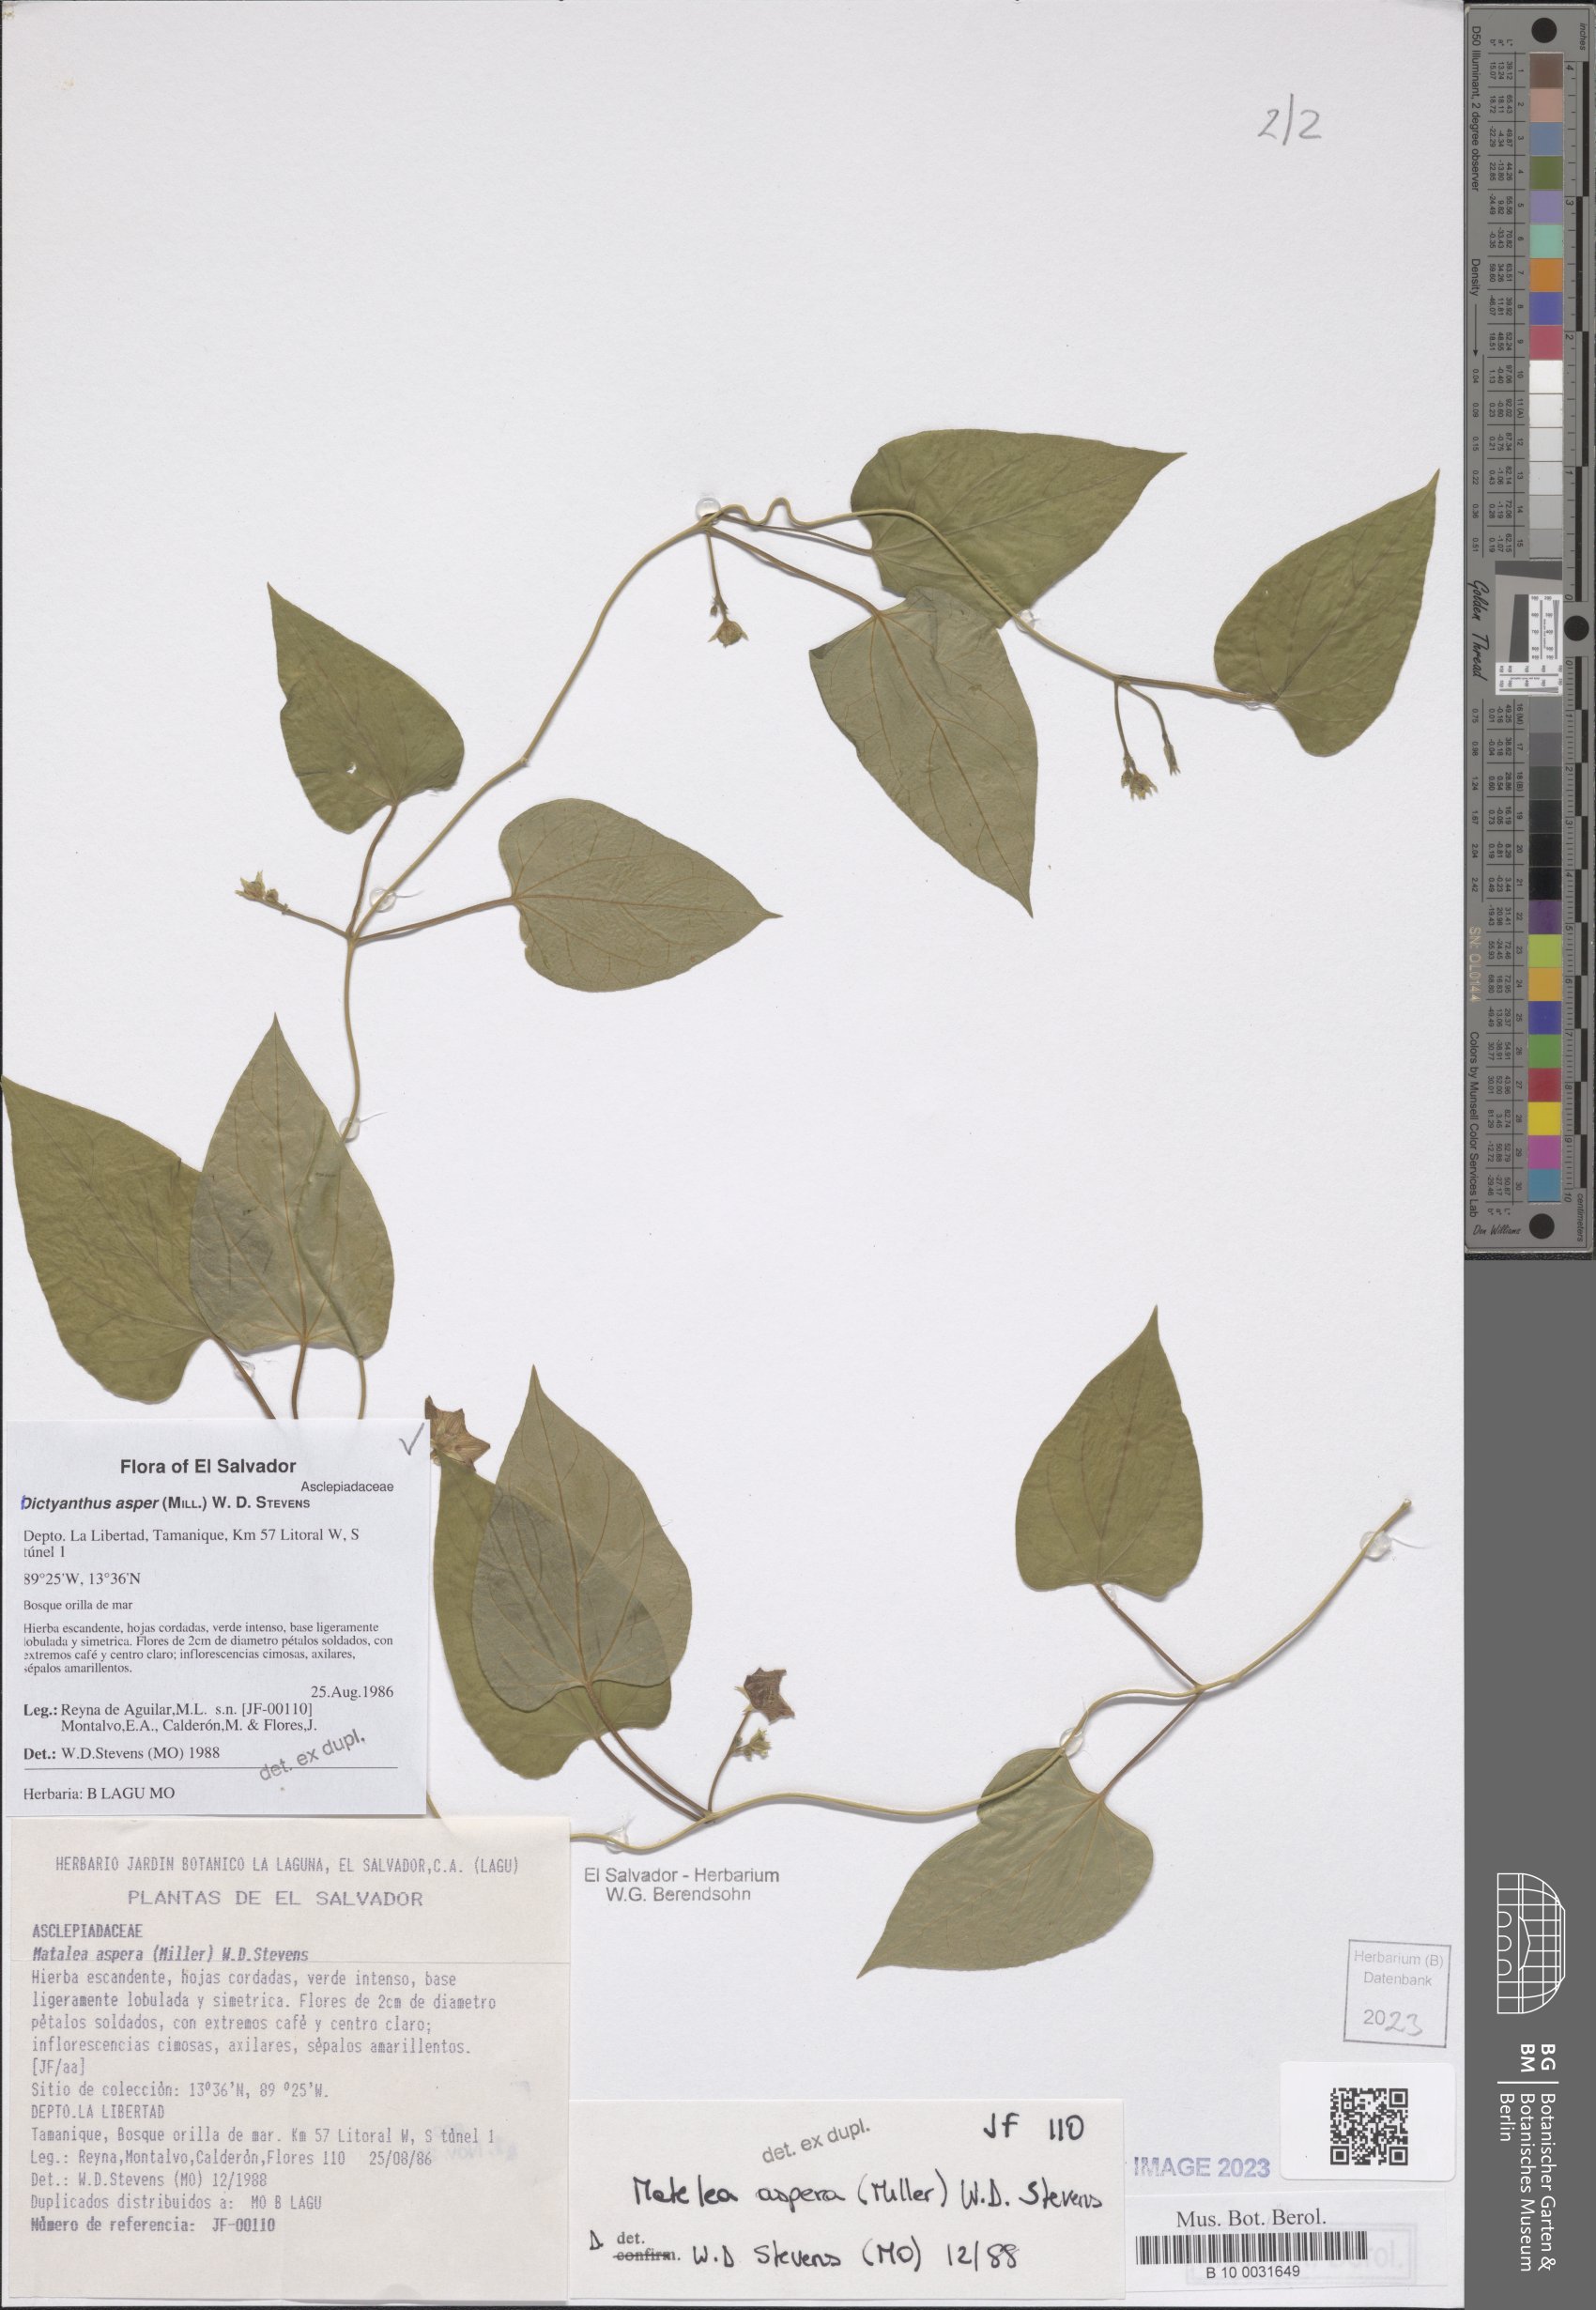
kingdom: Plantae
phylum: Tracheophyta
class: Magnoliopsida
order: Gentianales
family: Apocynaceae
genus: Dictyanthus
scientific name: Dictyanthus asper
